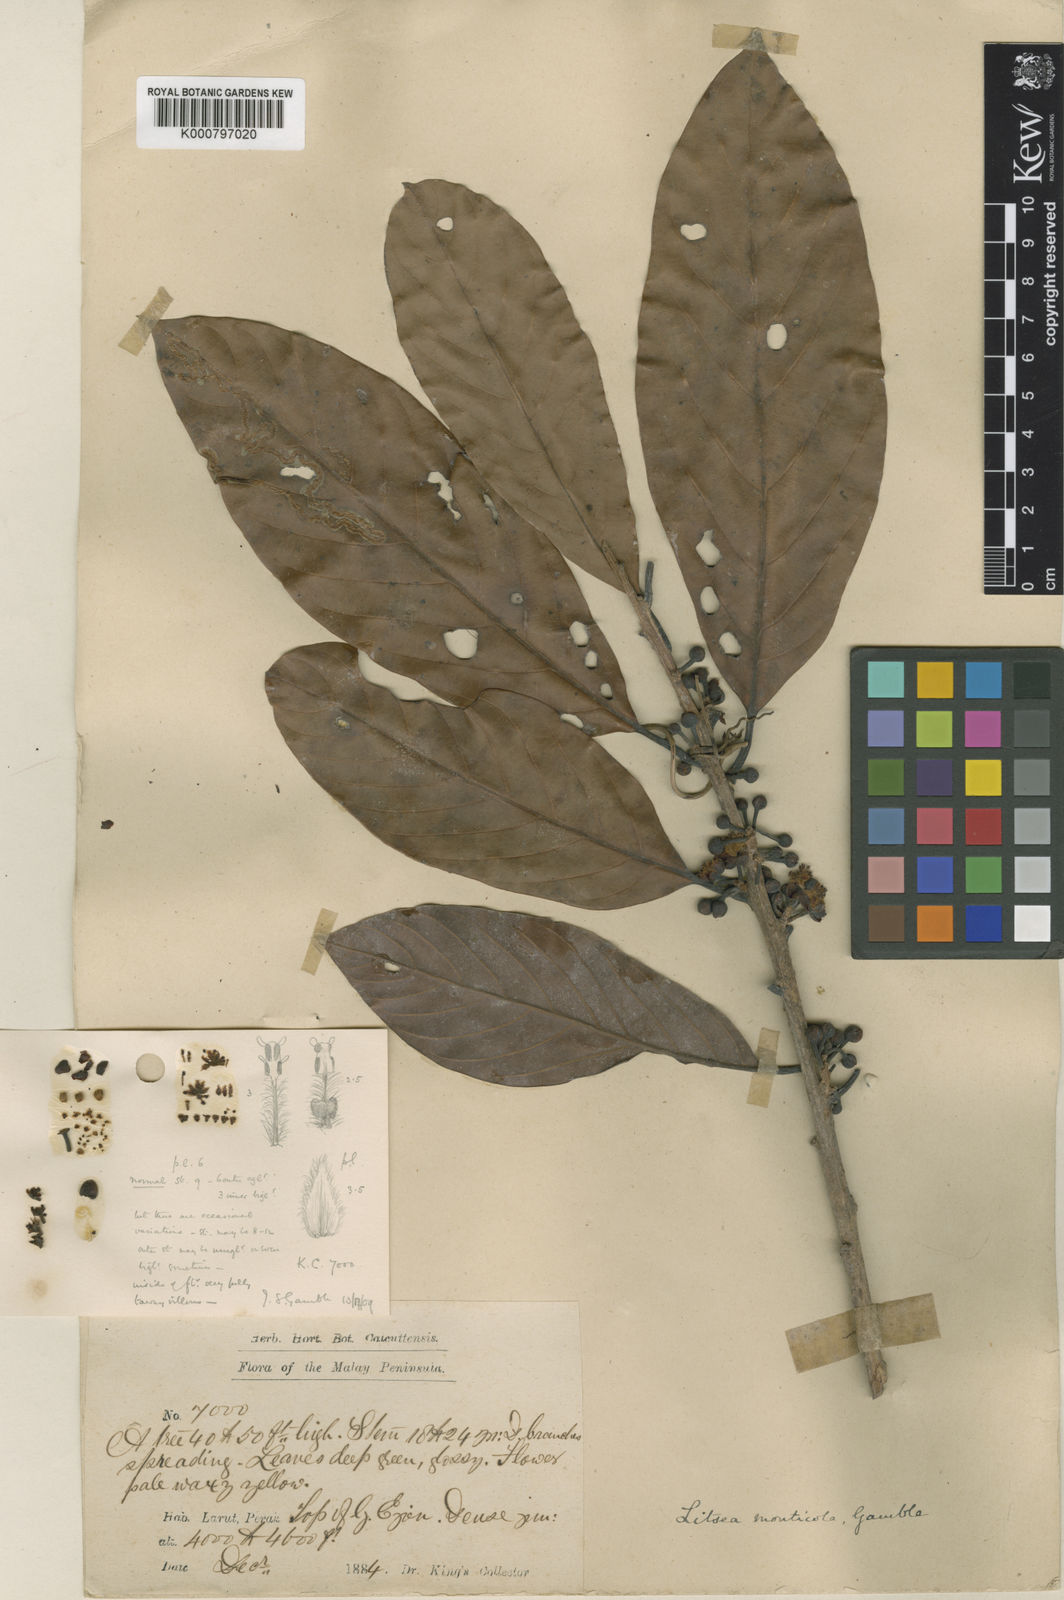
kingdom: Plantae
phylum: Tracheophyta
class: Magnoliopsida
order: Laurales
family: Lauraceae
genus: Litsea
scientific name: Litsea resinosa
